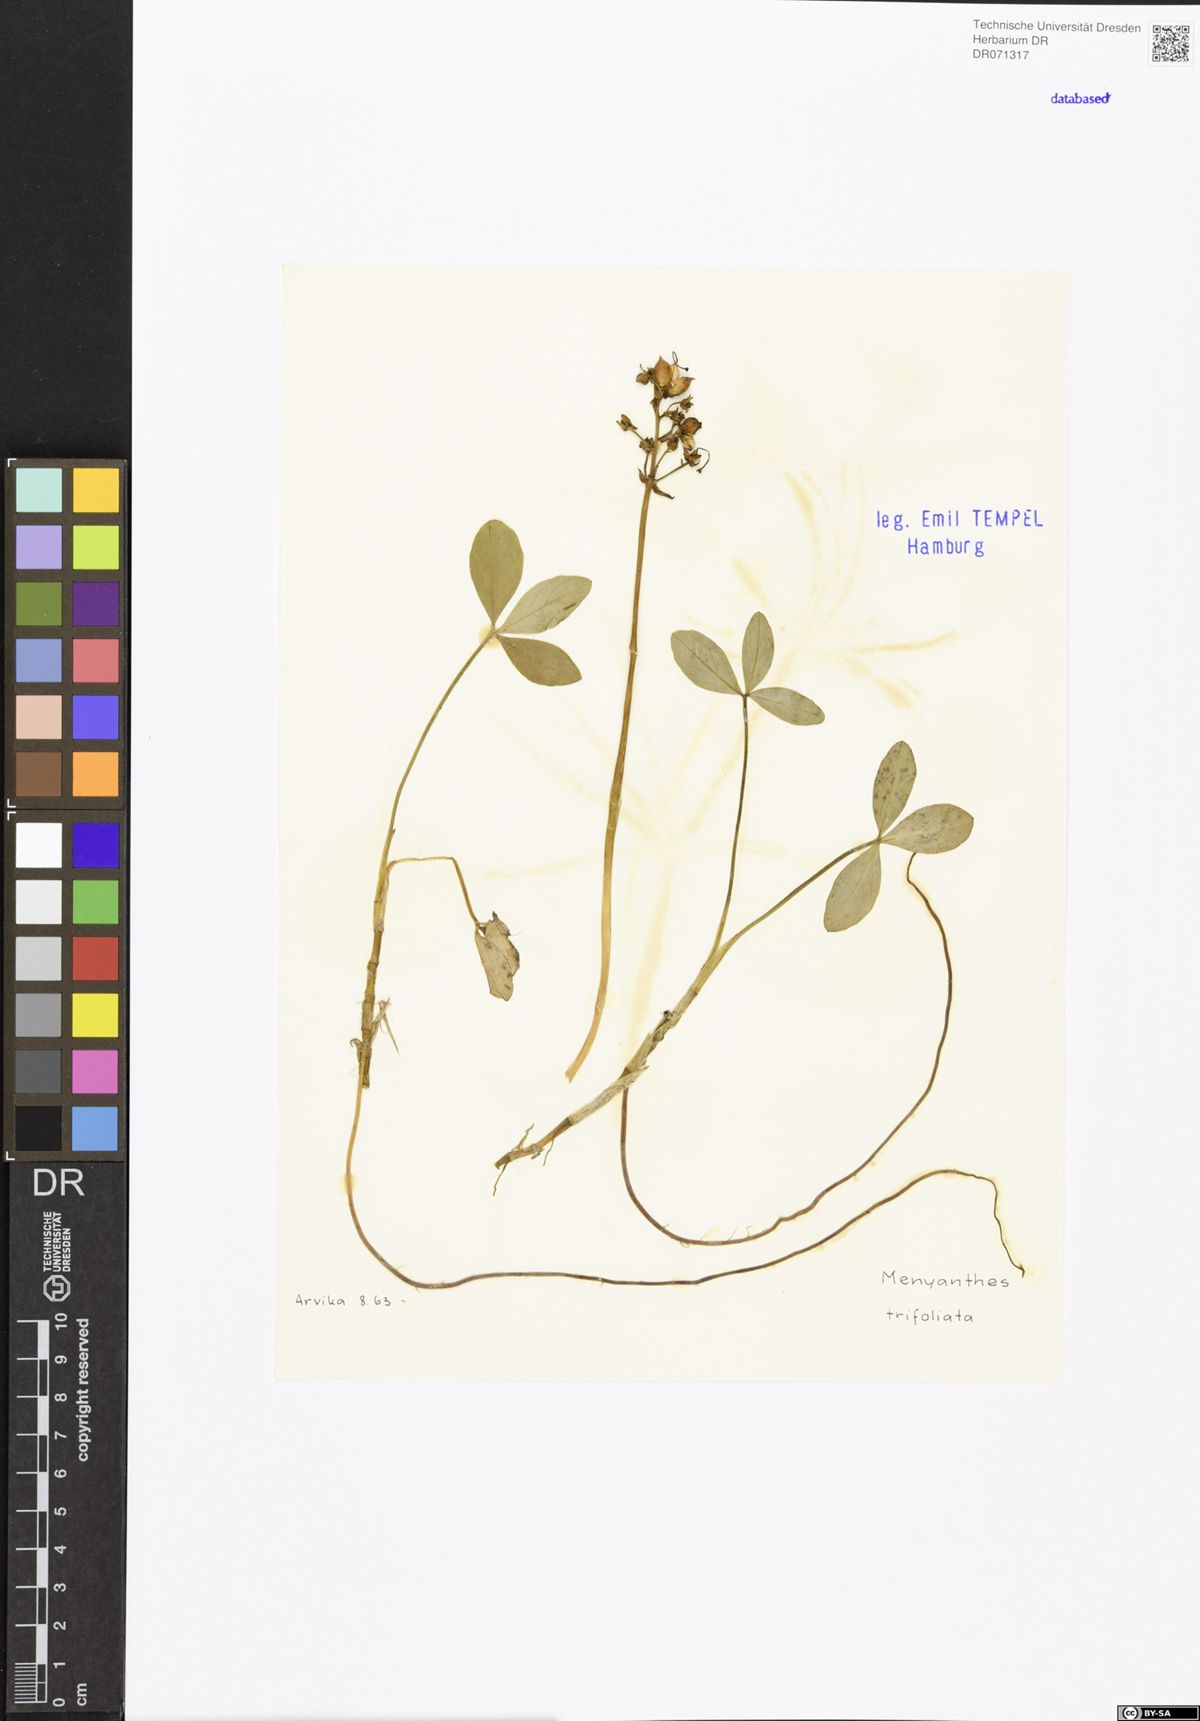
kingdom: Plantae
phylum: Tracheophyta
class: Magnoliopsida
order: Asterales
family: Menyanthaceae
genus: Menyanthes
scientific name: Menyanthes trifoliata
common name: Bogbean
